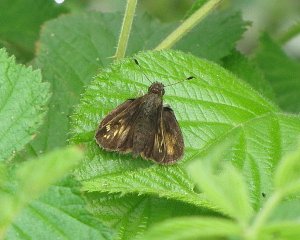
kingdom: Animalia
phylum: Arthropoda
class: Insecta
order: Lepidoptera
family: Hesperiidae
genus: Lon
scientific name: Lon hobomok
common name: Hobomok Skipper
